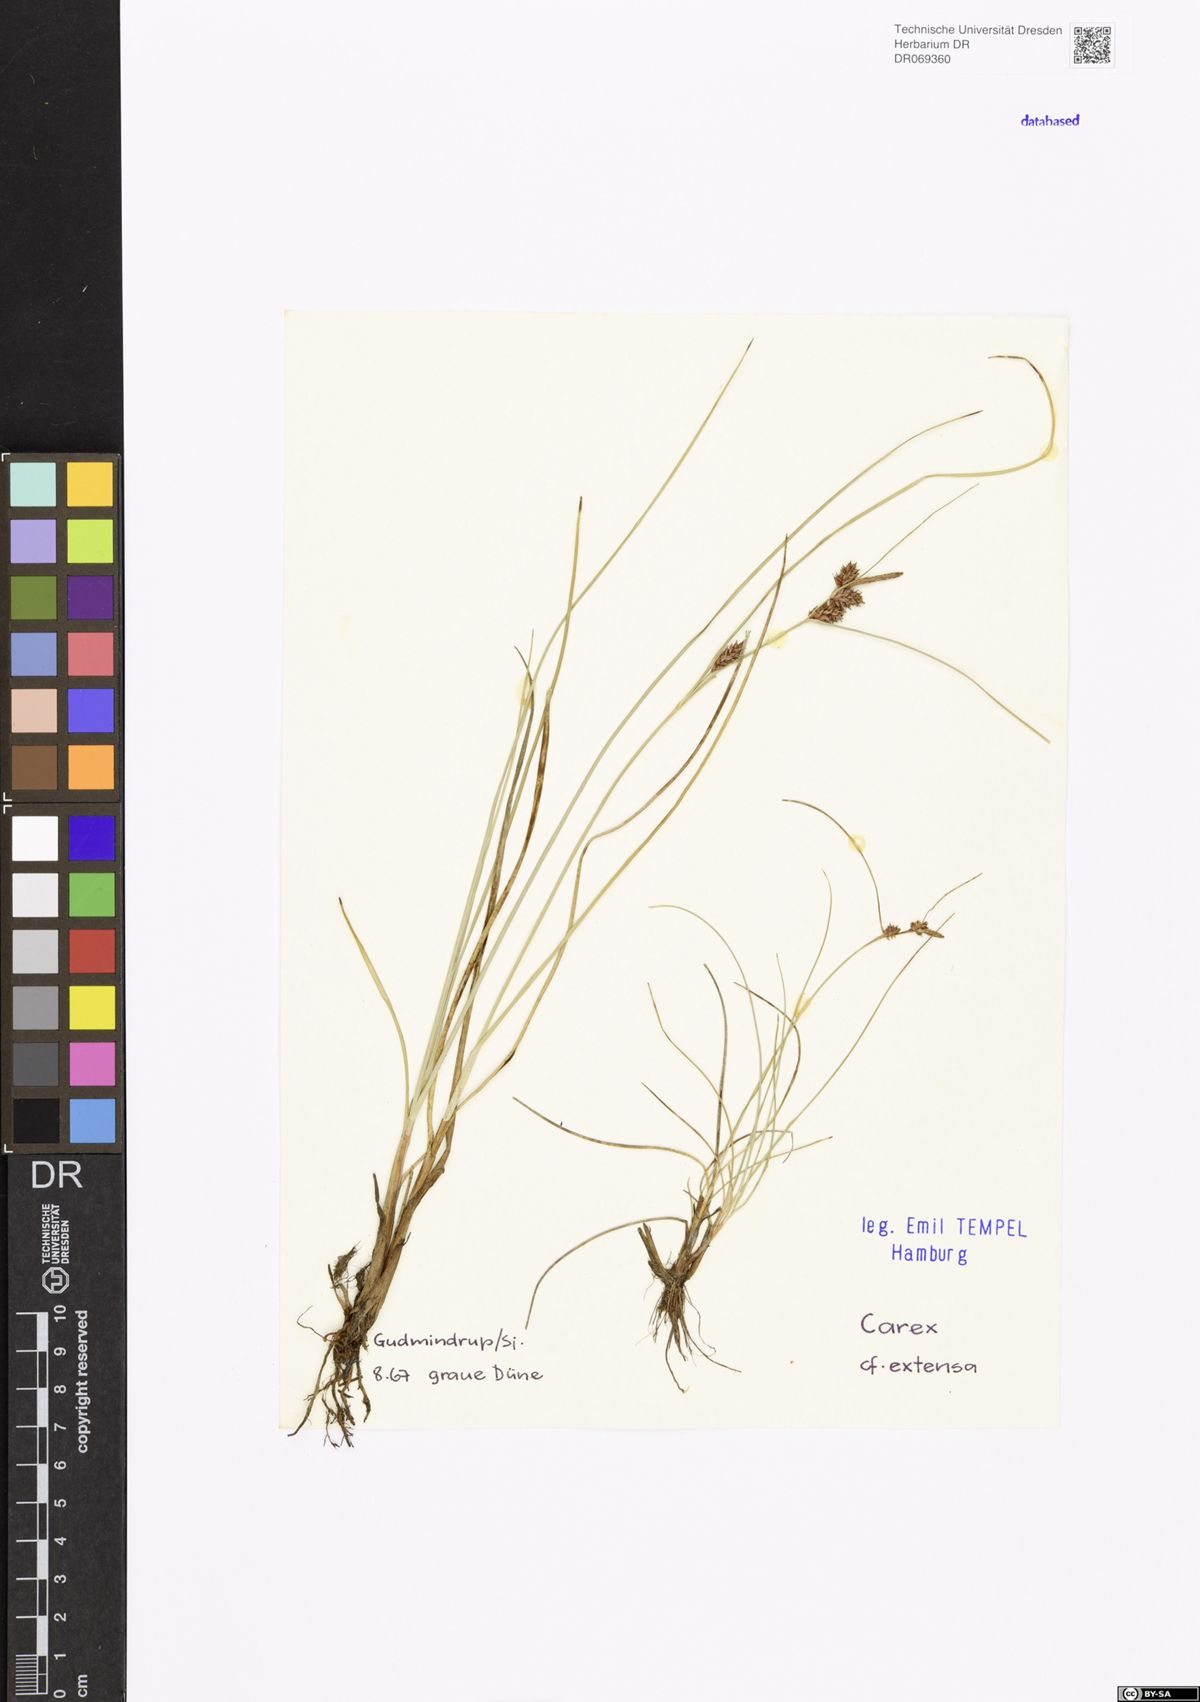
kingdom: Plantae
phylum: Tracheophyta
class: Liliopsida
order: Poales
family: Cyperaceae
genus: Carex
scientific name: Carex extensa
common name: Long-bracted sedge
